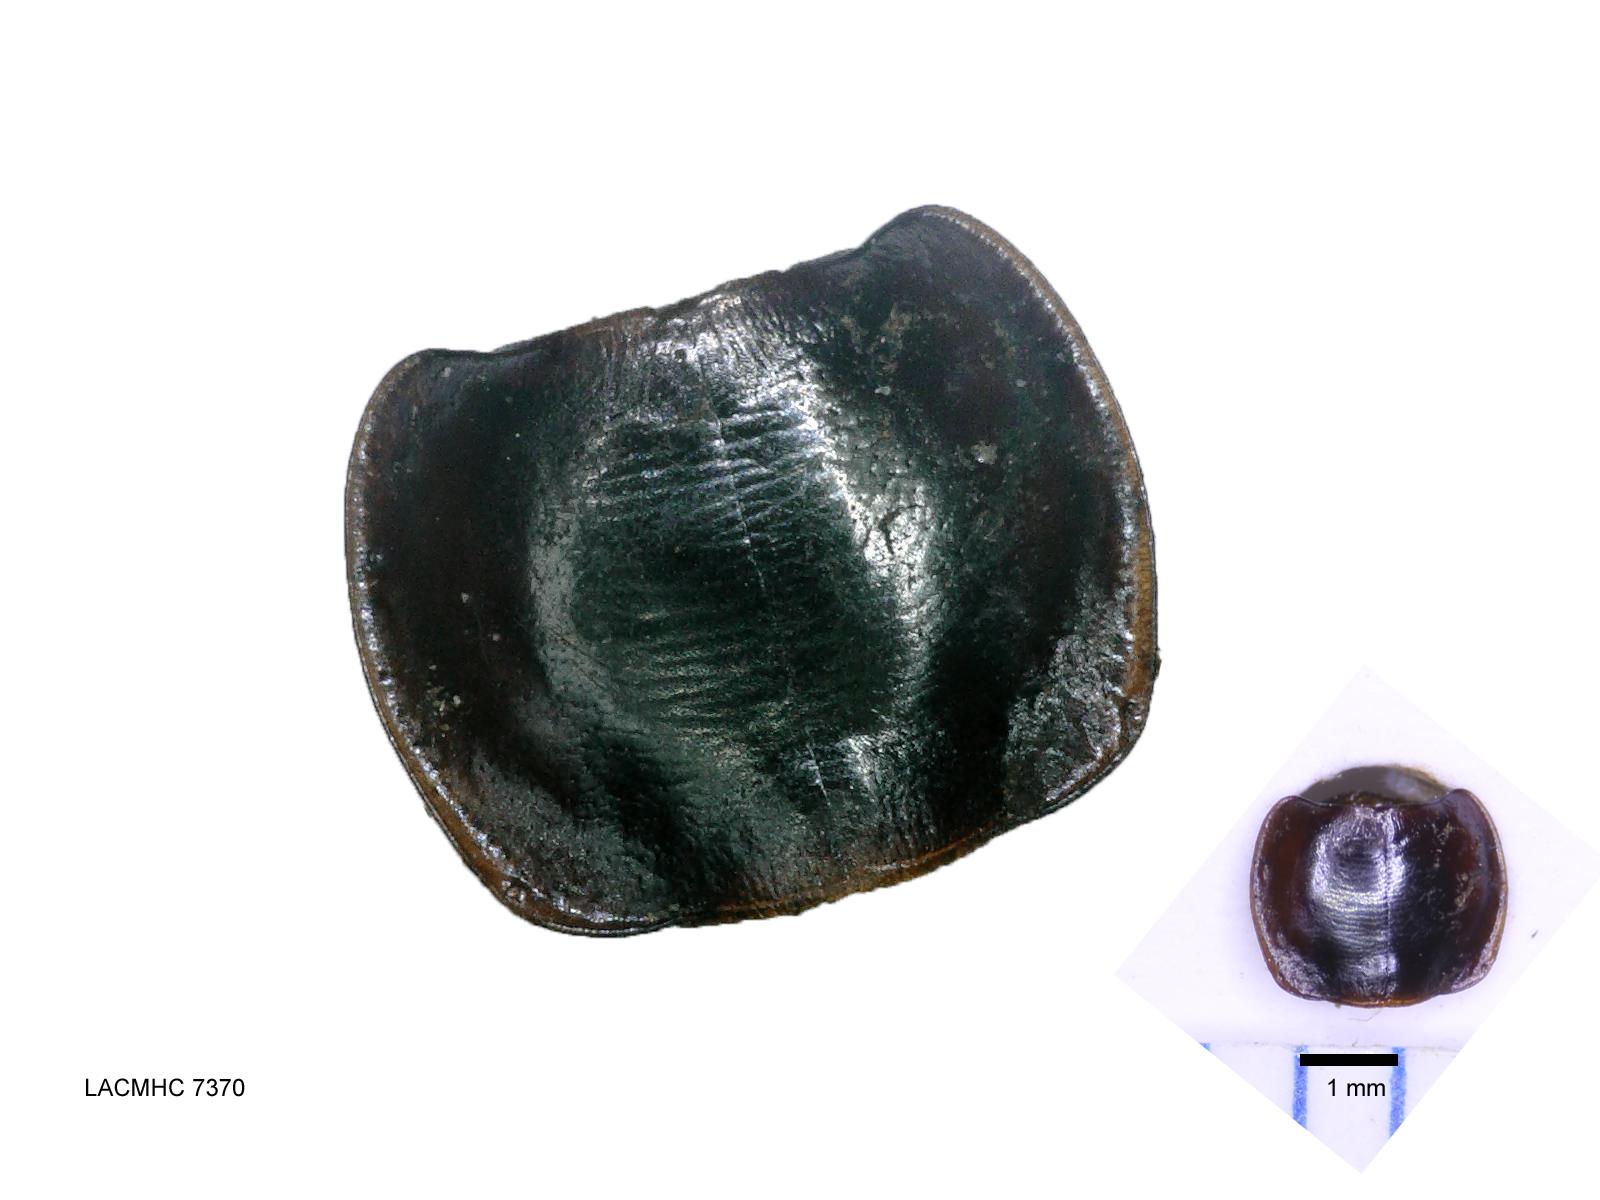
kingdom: Animalia
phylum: Arthropoda
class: Insecta
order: Coleoptera
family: Carabidae
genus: Tanystoma
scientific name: Tanystoma maculicolle
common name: Tule beetle
